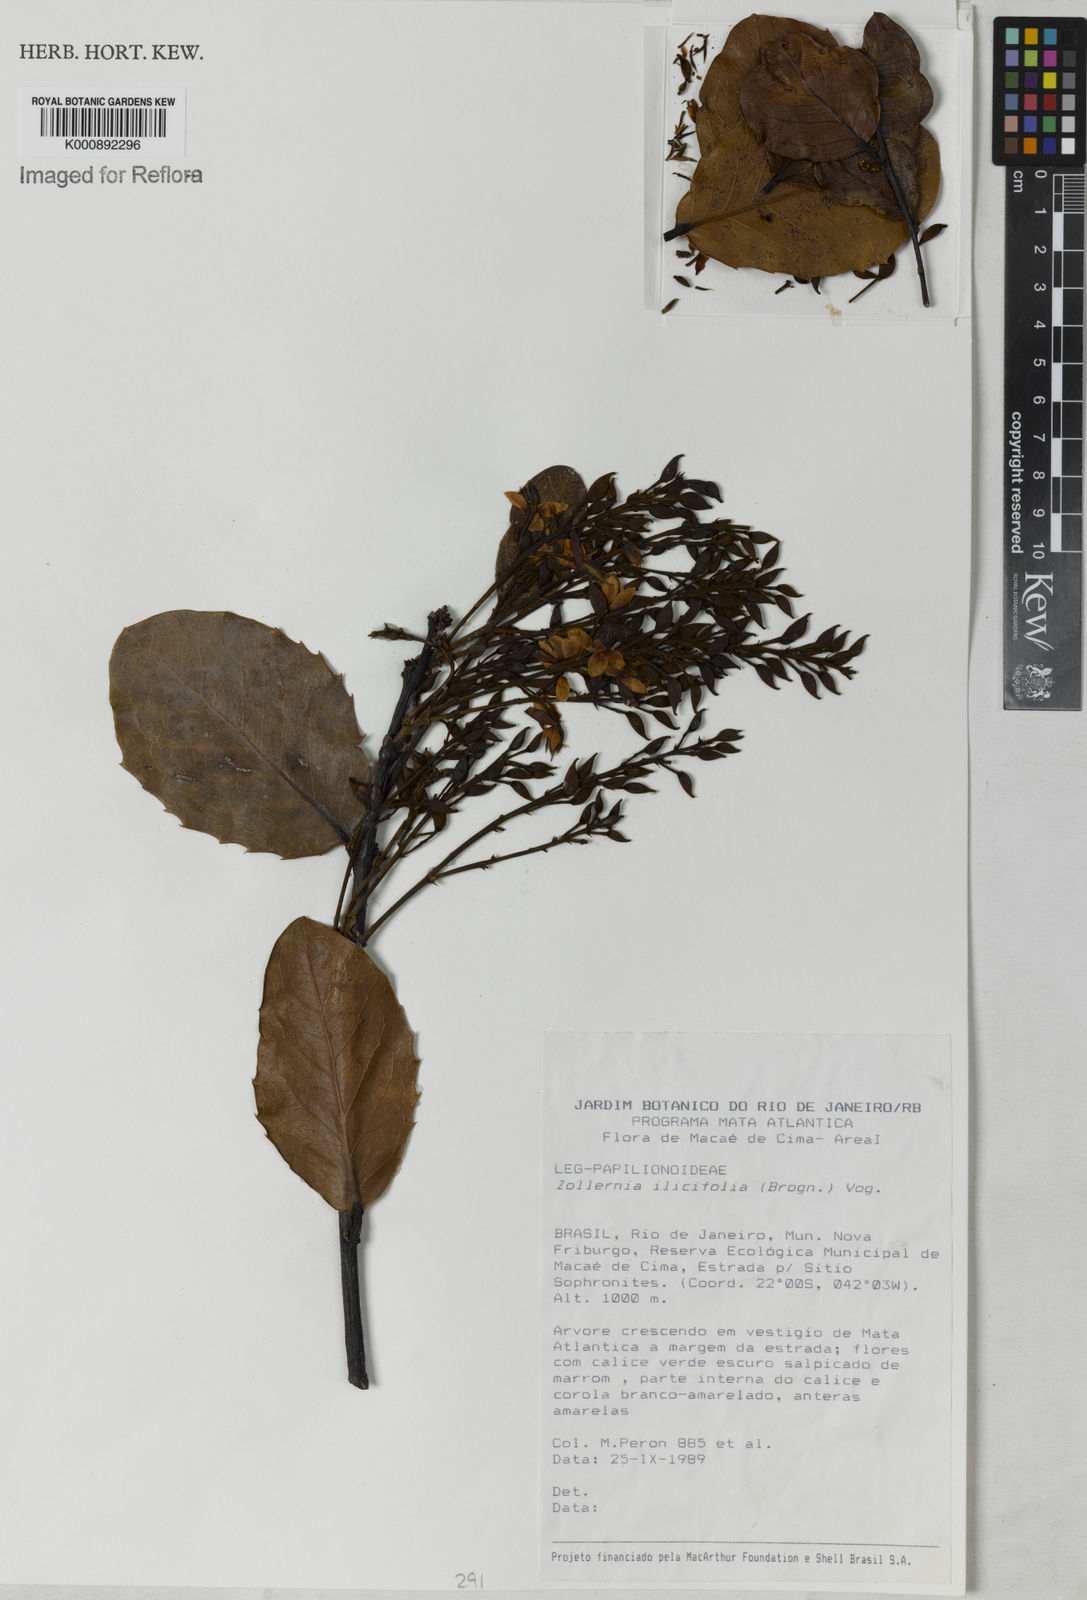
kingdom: Plantae
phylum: Tracheophyta
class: Magnoliopsida
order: Fabales
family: Fabaceae
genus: Zollernia
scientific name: Zollernia ilicifolia
